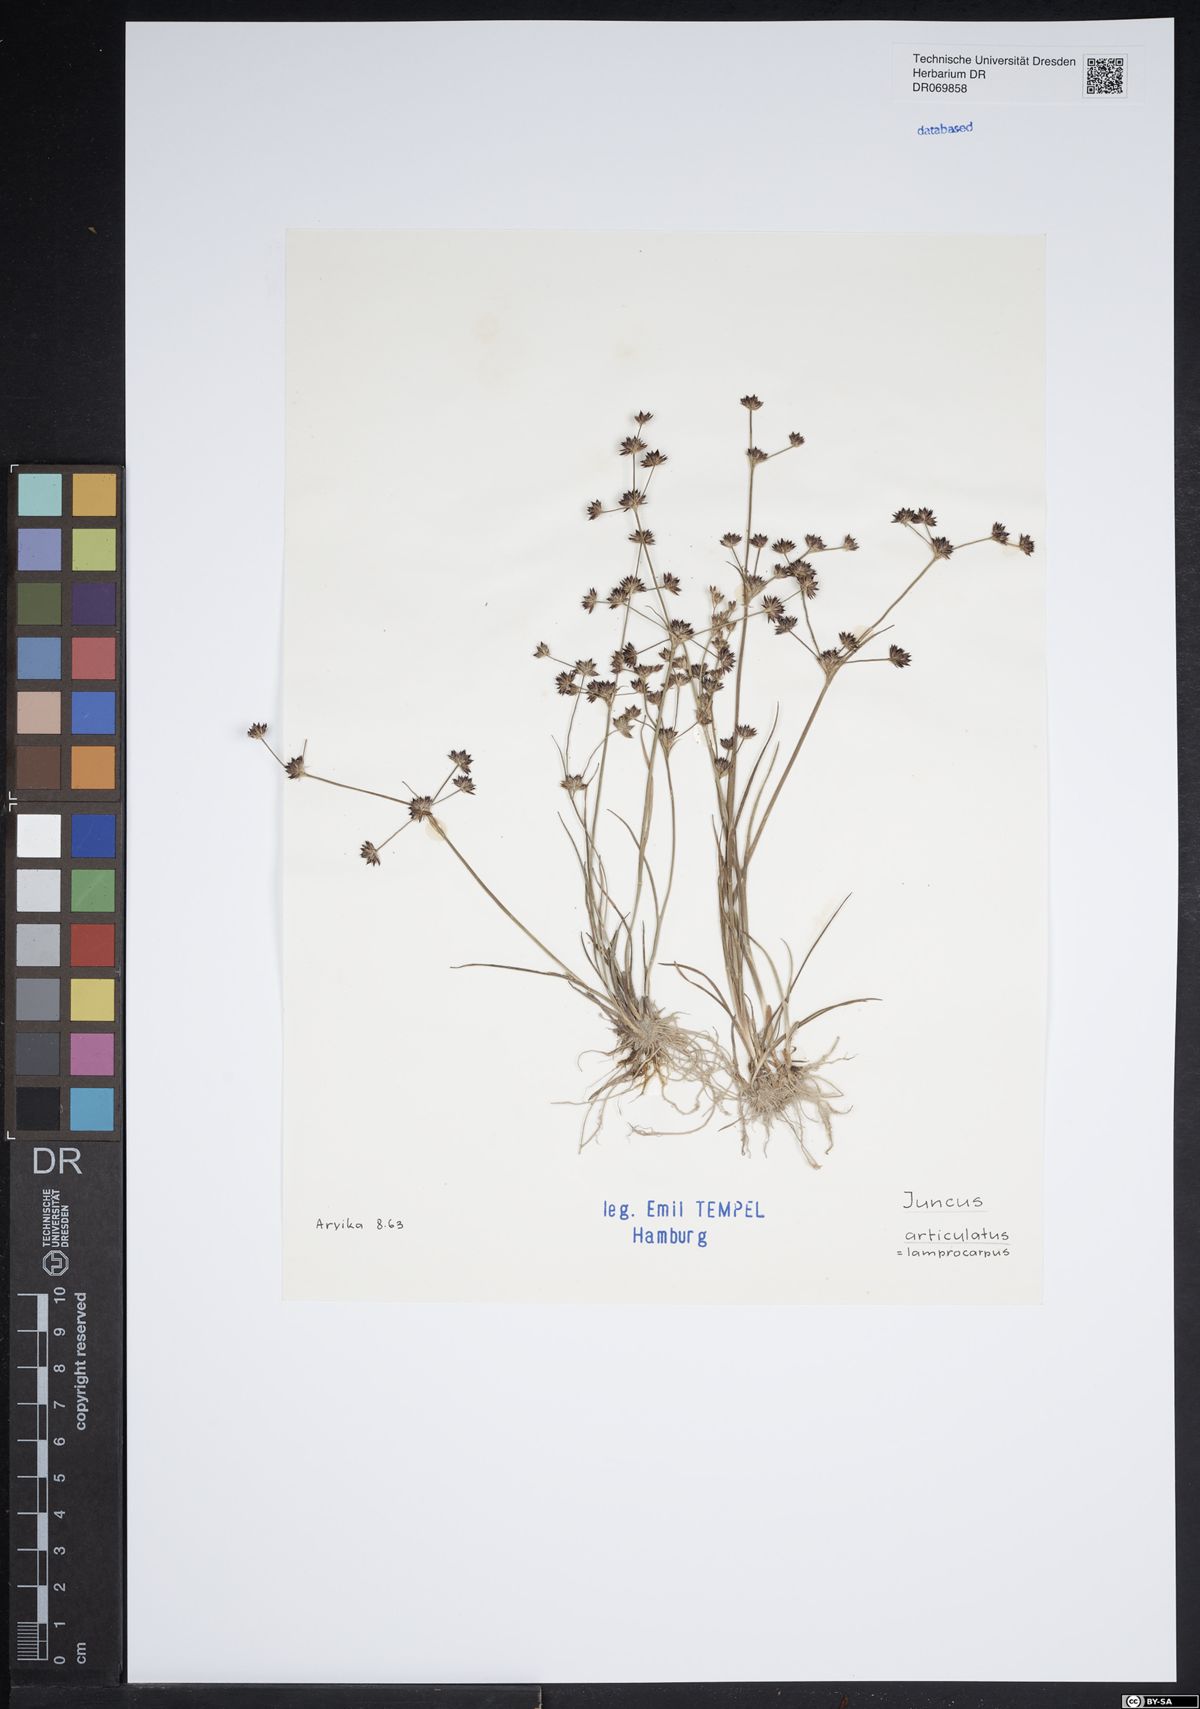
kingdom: Plantae
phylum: Tracheophyta
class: Liliopsida
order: Poales
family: Juncaceae
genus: Juncus
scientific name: Juncus articulatus
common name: Jointed rush
